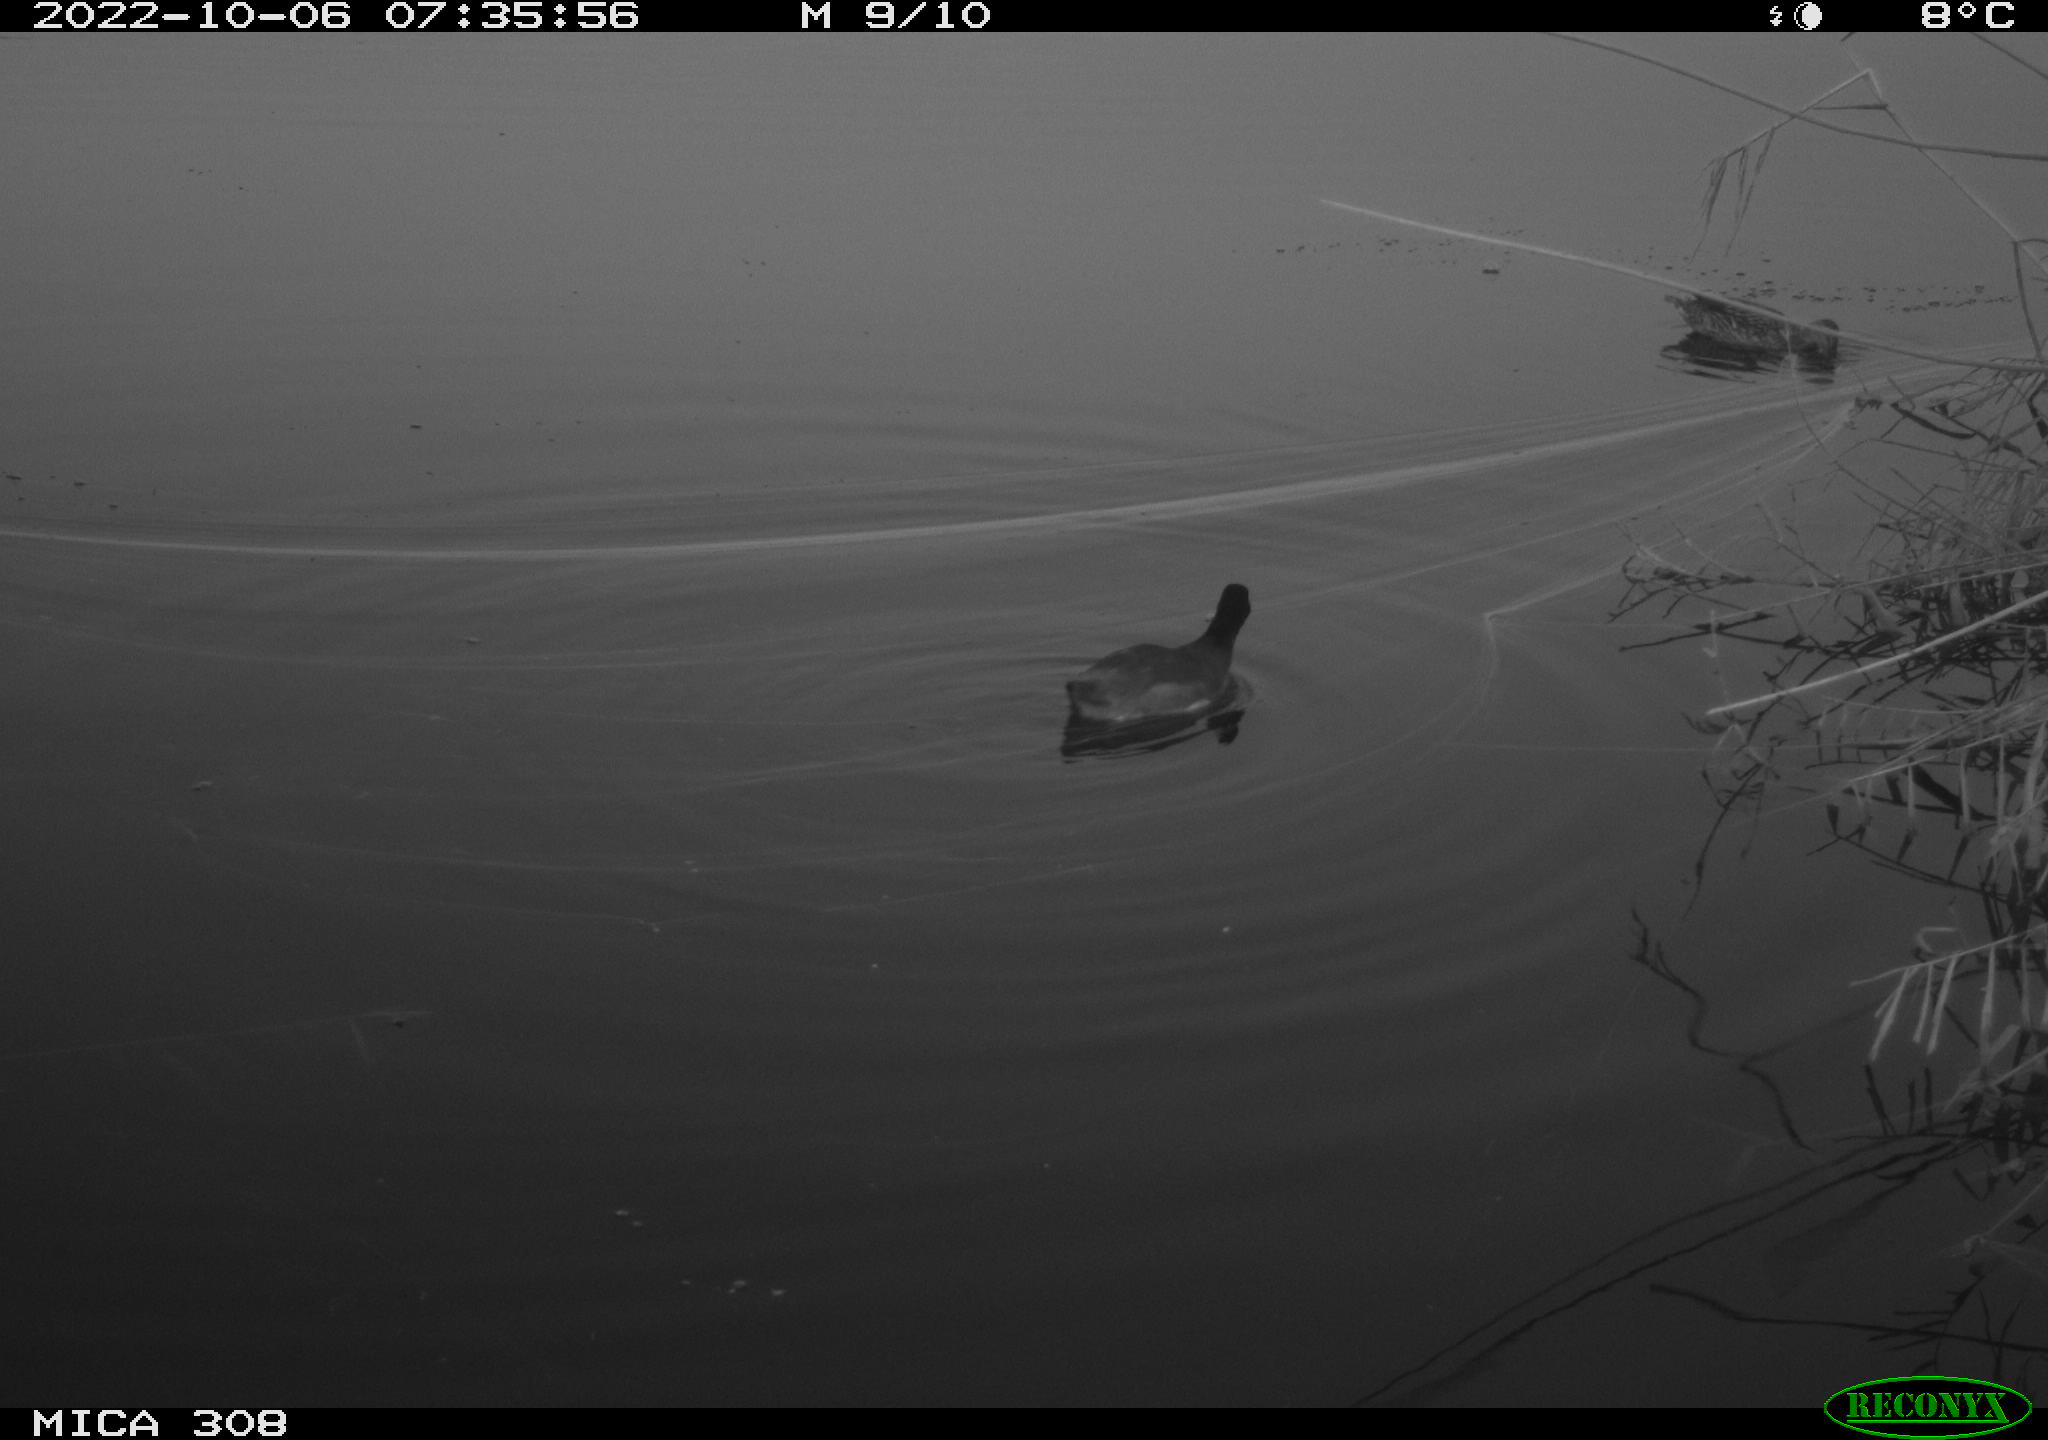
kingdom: Animalia
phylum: Chordata
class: Aves
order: Gruiformes
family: Rallidae
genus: Fulica
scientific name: Fulica atra
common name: Eurasian coot
